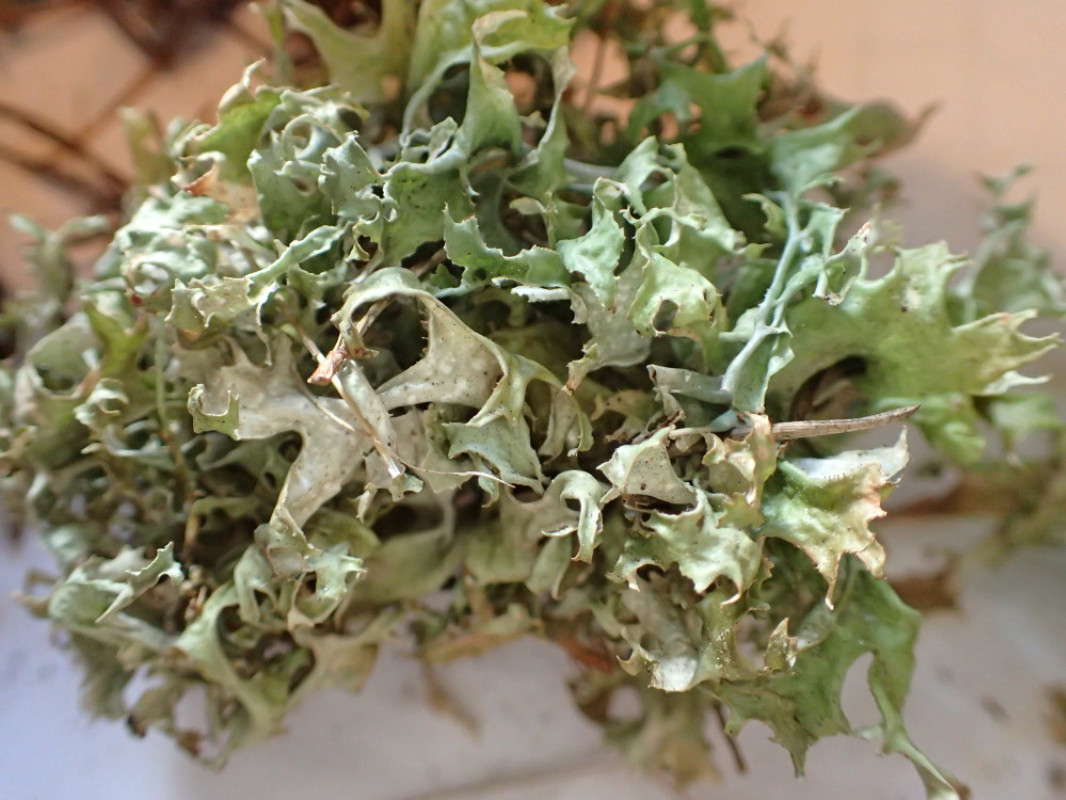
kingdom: Fungi
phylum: Ascomycota
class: Lecanoromycetes
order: Lecanorales
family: Parmeliaceae
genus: Cetraria
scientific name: Cetraria islandica
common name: islandsk kruslav
